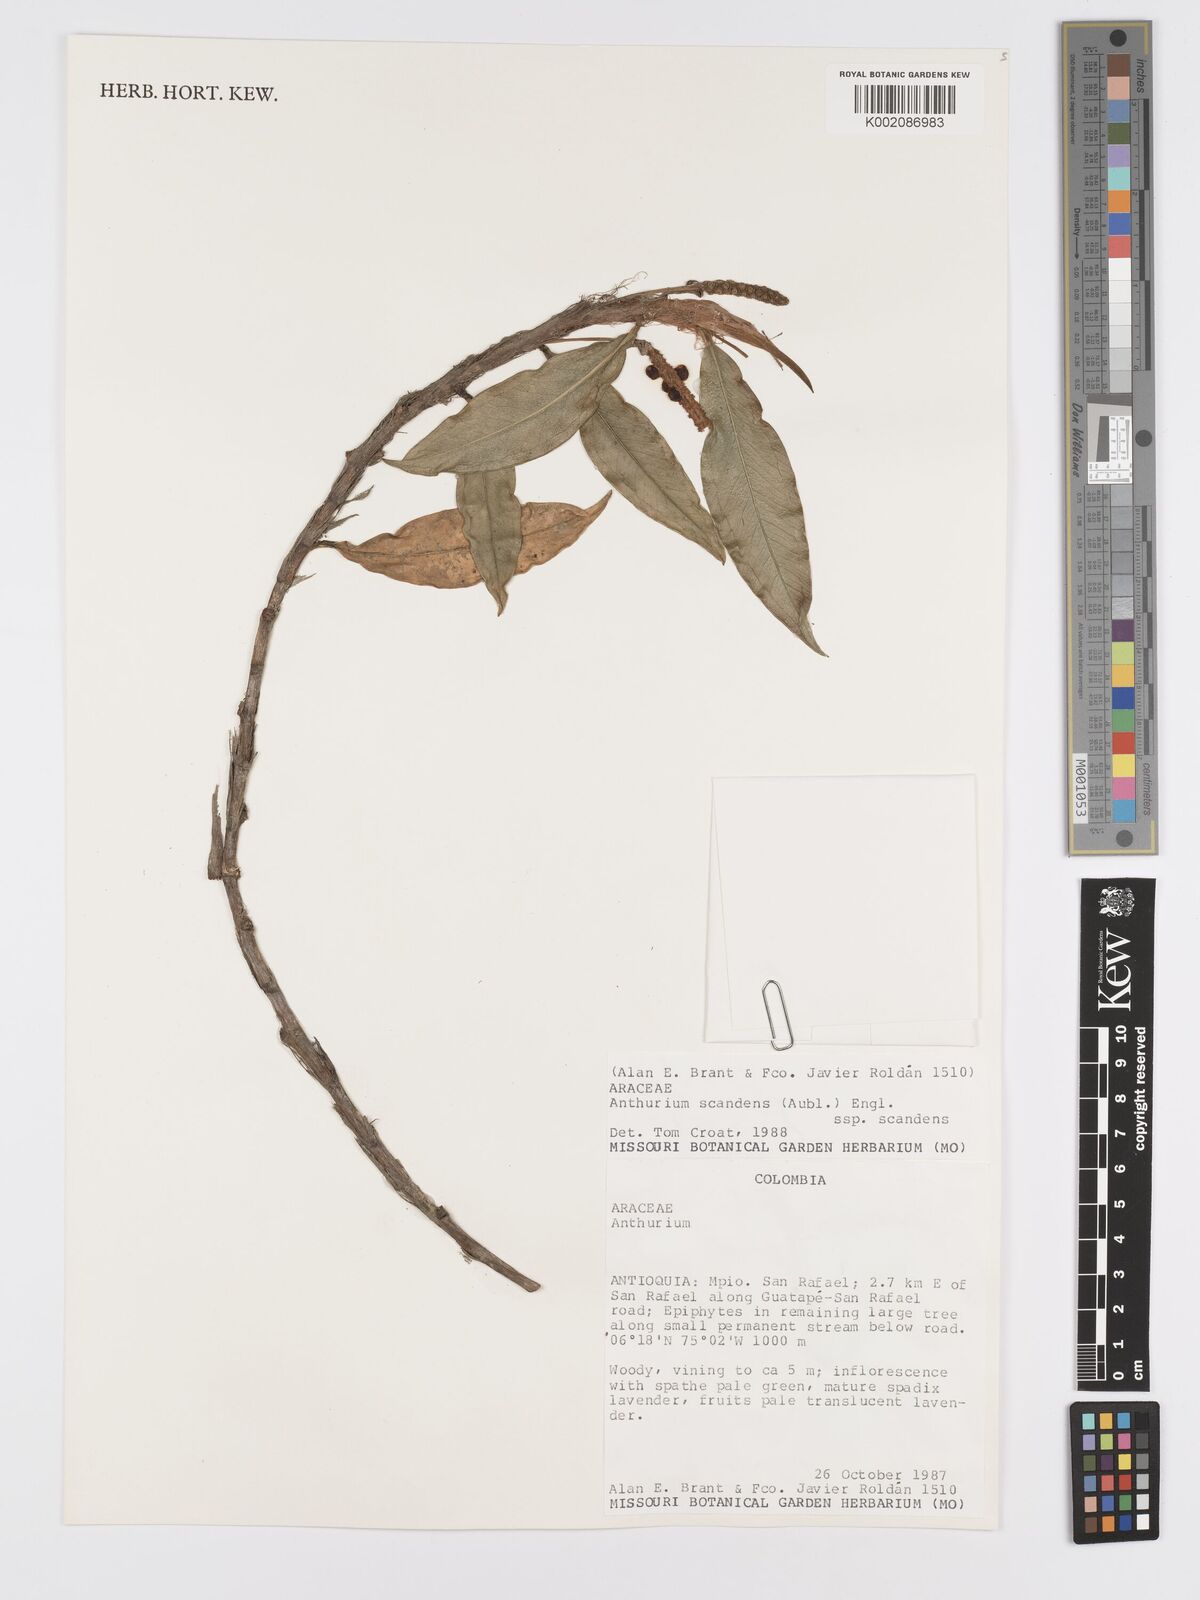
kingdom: Plantae
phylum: Tracheophyta
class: Liliopsida
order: Alismatales
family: Araceae
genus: Anthurium
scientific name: Anthurium scandens
